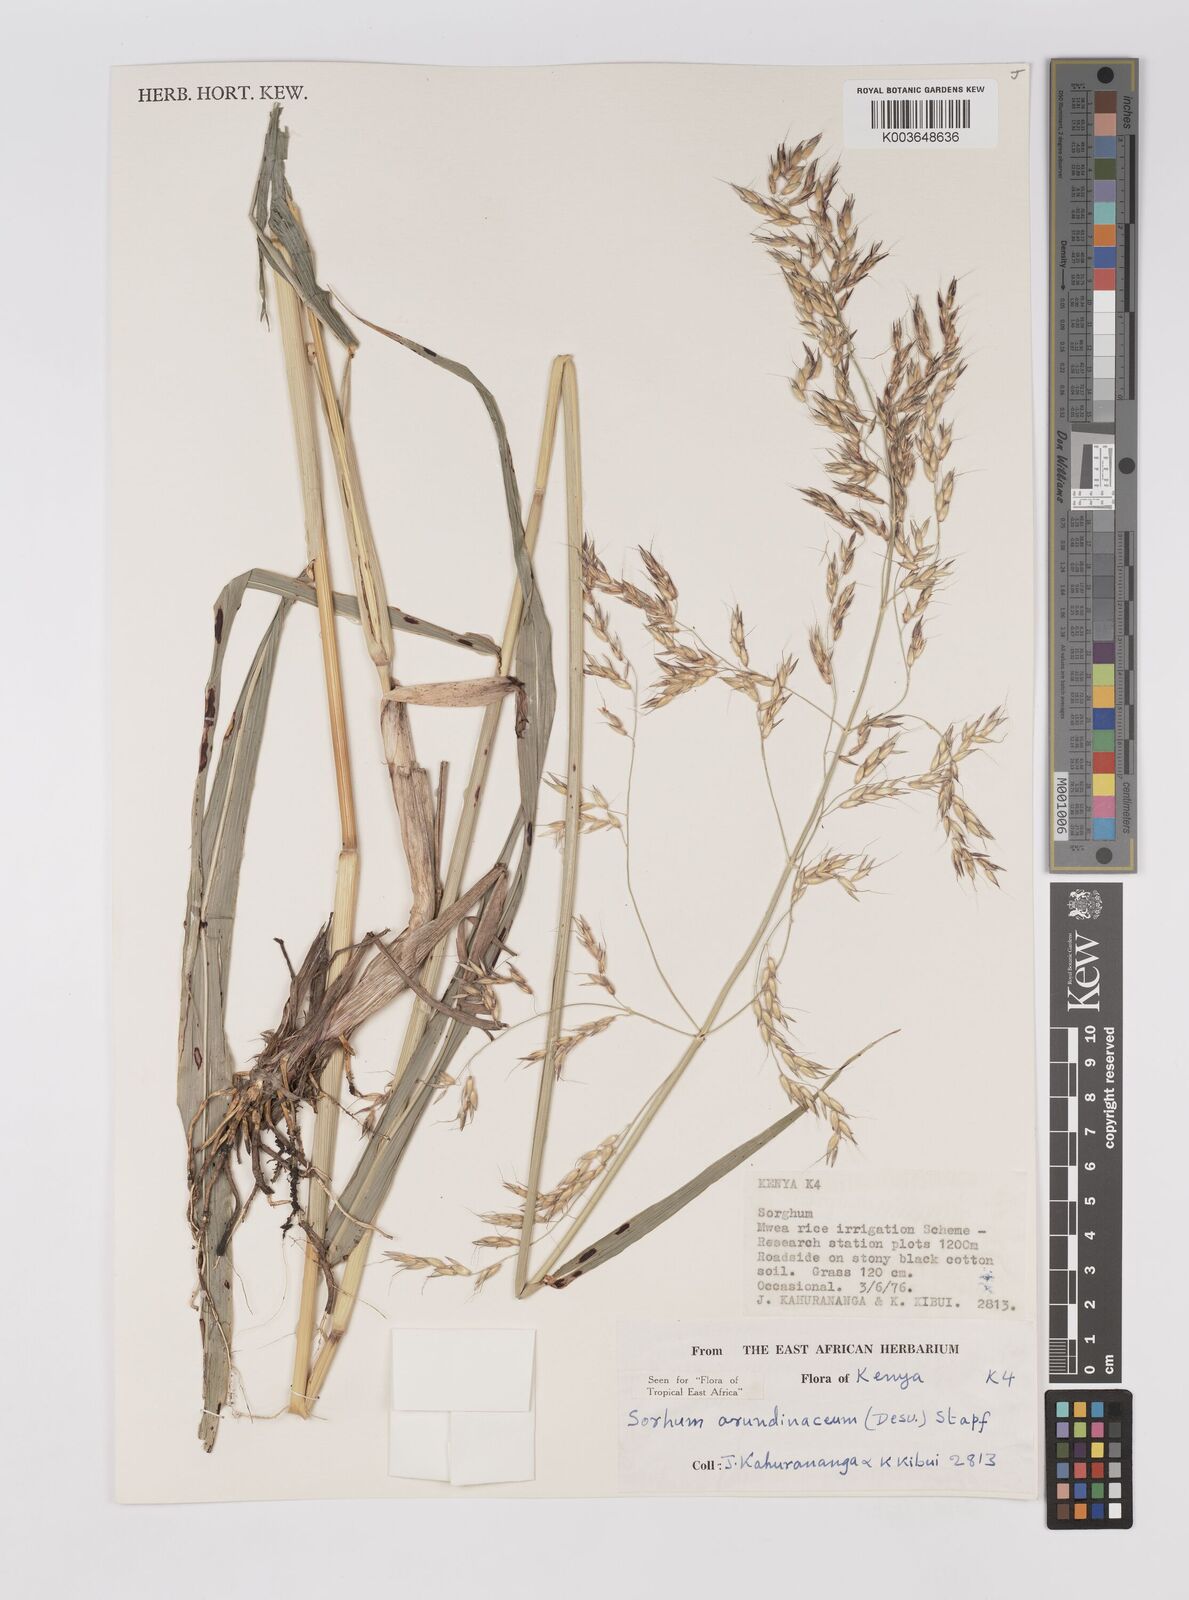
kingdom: Plantae
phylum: Tracheophyta
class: Liliopsida
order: Poales
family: Poaceae
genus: Sorghum
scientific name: Sorghum arundinaceum
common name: Sorghum
